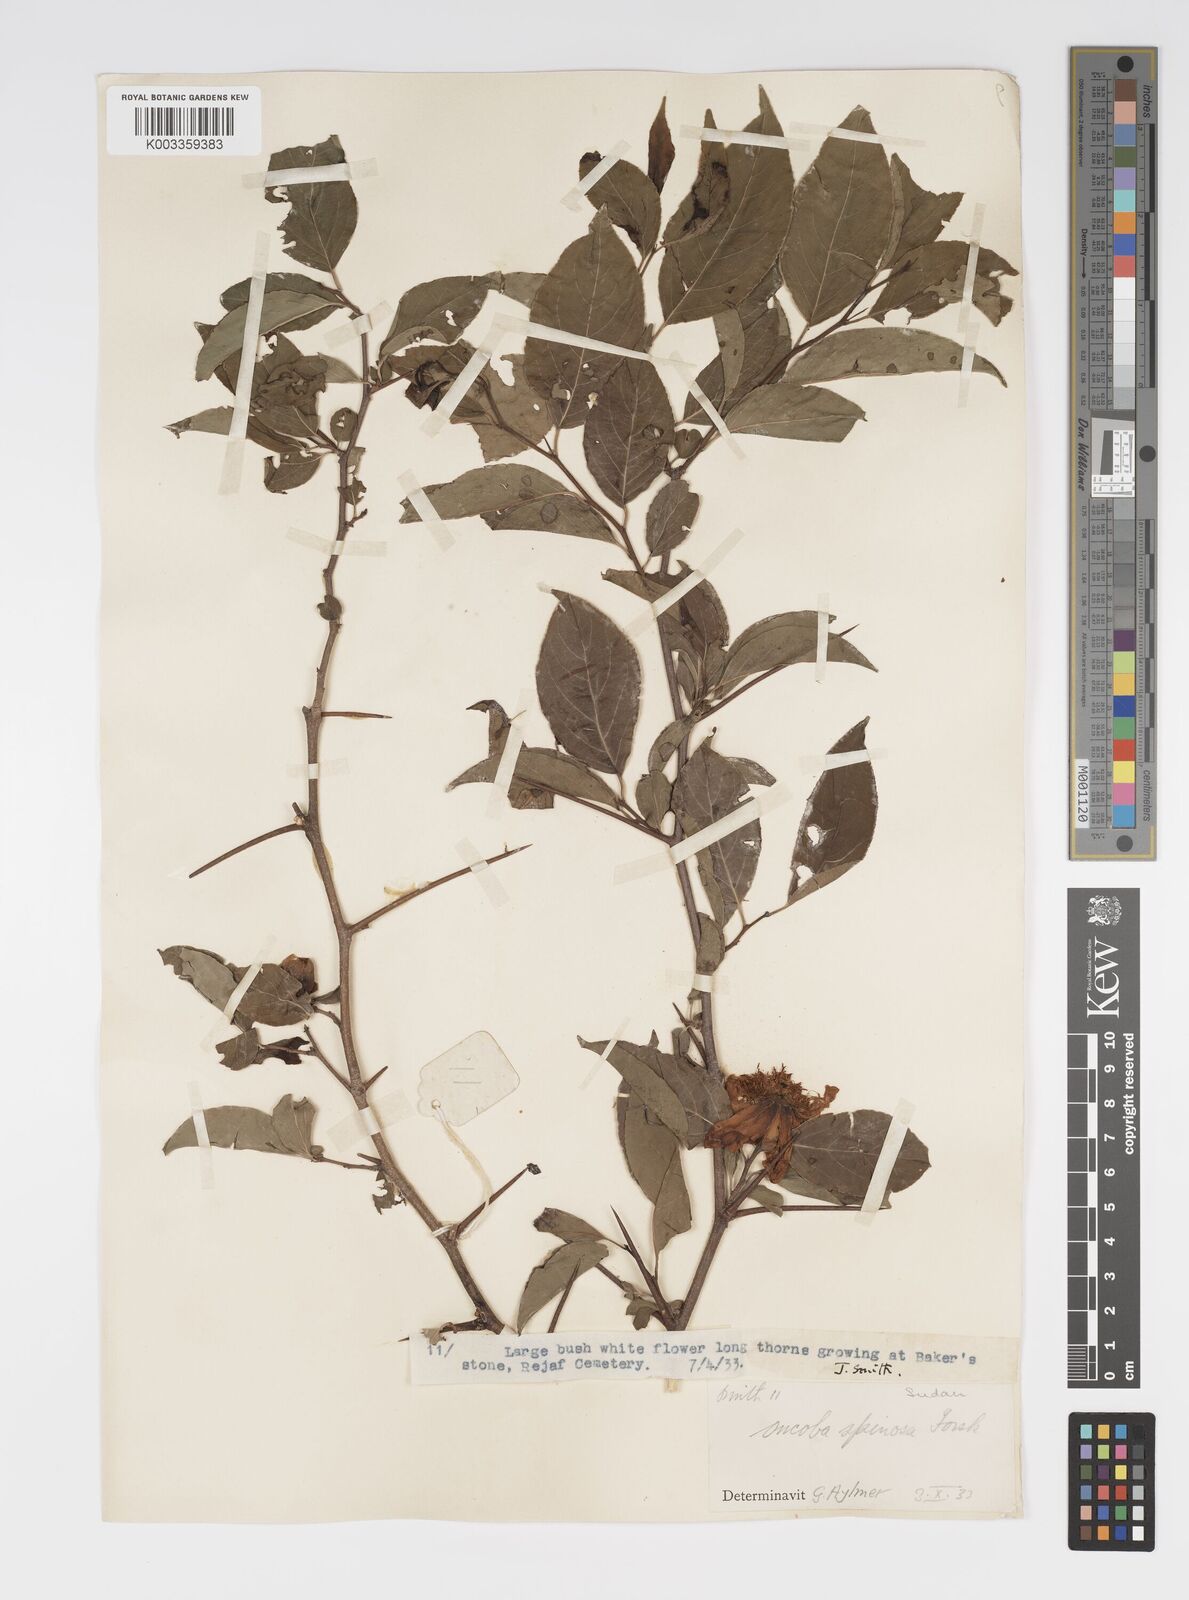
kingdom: Plantae
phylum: Tracheophyta
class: Magnoliopsida
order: Malpighiales
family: Salicaceae
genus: Oncoba
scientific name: Oncoba spinosa
